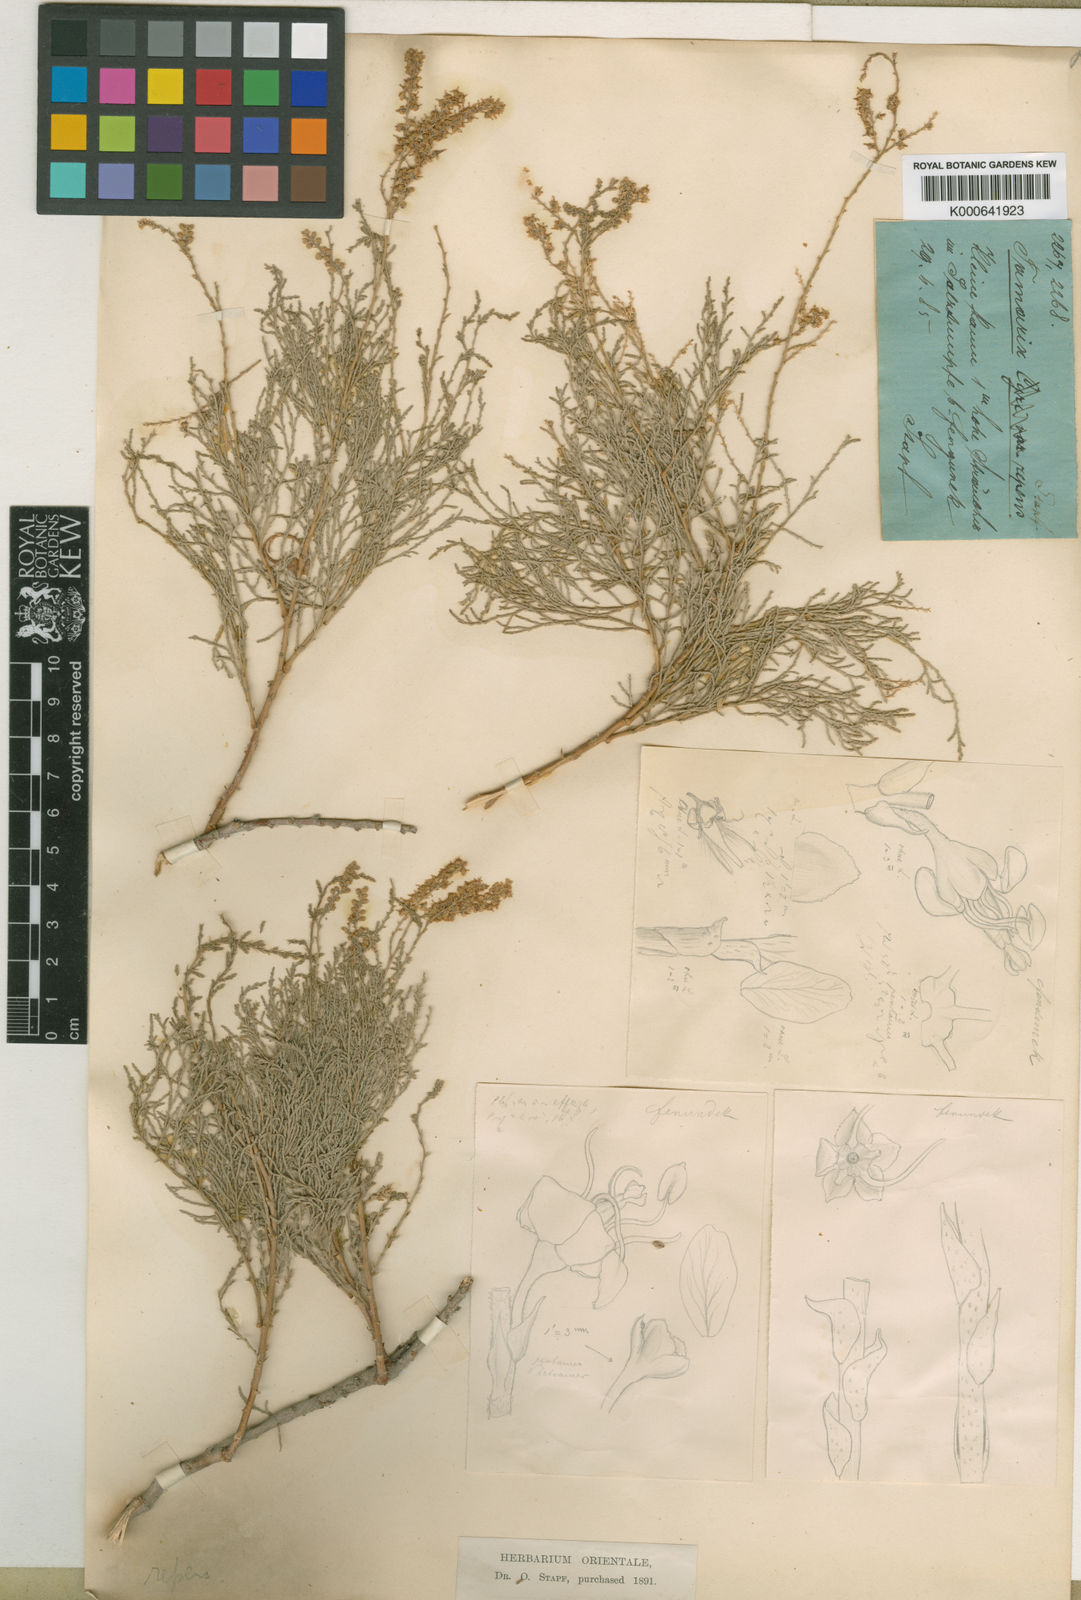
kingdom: Plantae
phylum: Tracheophyta
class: Magnoliopsida
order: Caryophyllales
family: Tamaricaceae
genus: Tamarix
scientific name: Tamarix
